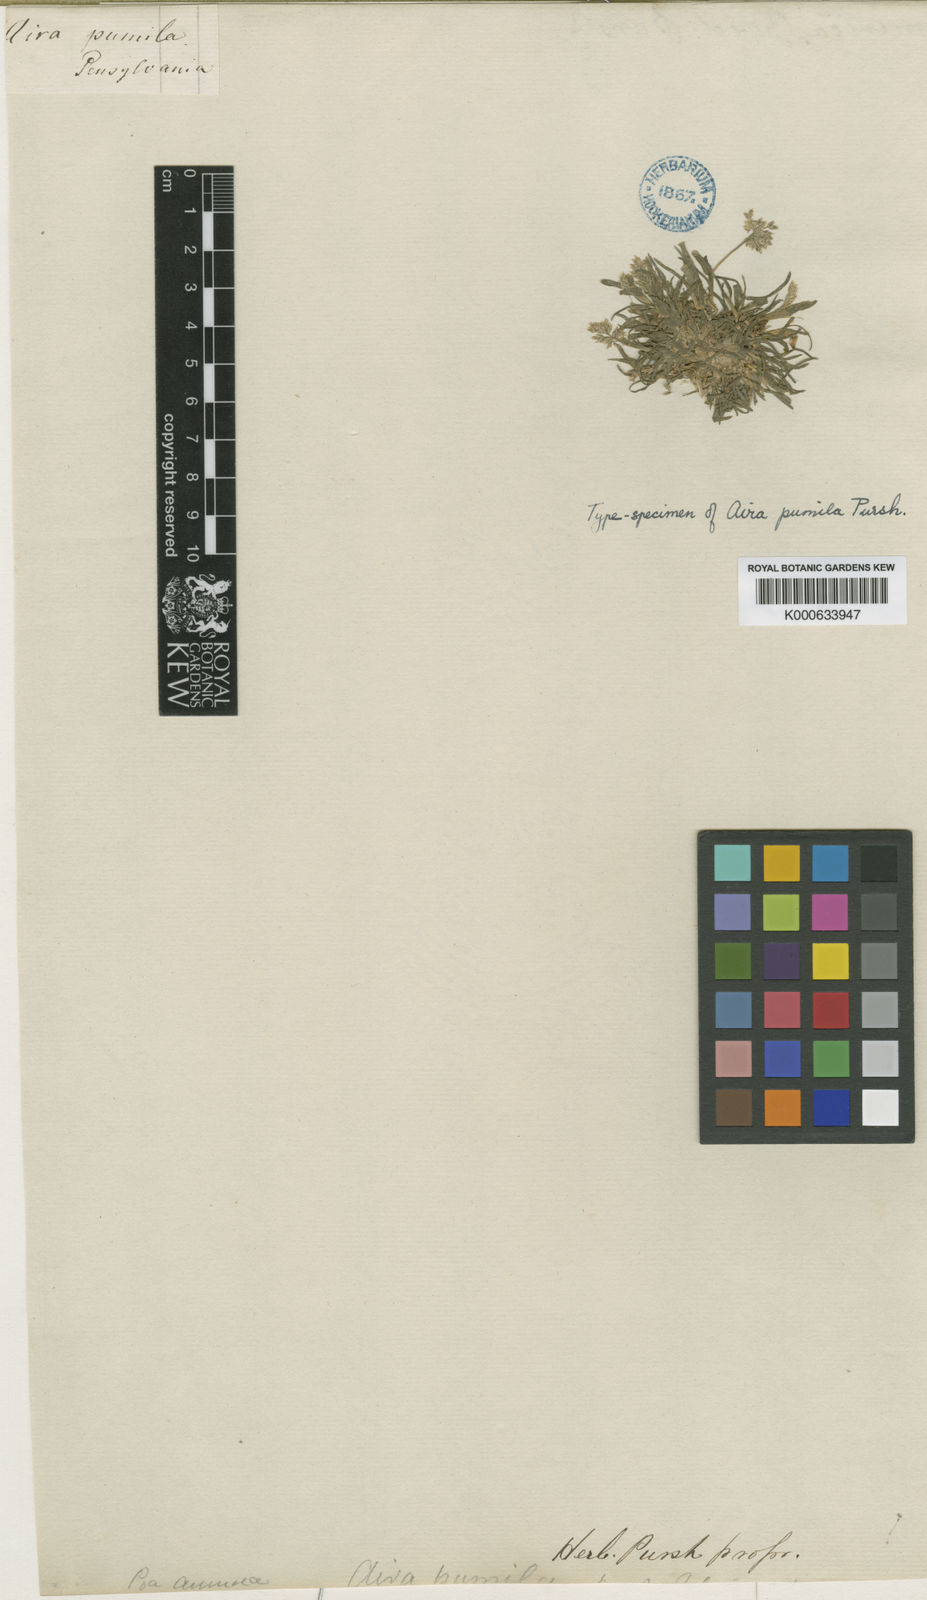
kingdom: Plantae
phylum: Tracheophyta
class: Liliopsida
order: Poales
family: Poaceae
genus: Poa
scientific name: Poa annua
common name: Annual bluegrass
